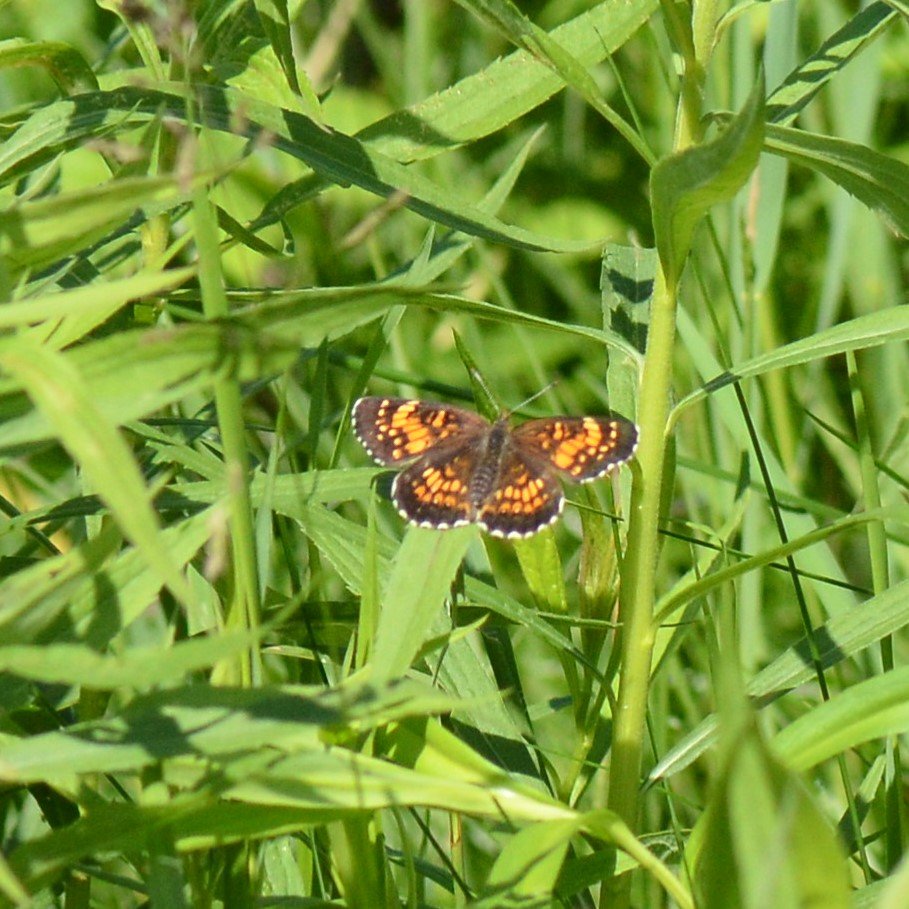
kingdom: Animalia
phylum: Arthropoda
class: Insecta
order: Lepidoptera
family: Nymphalidae
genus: Chlosyne
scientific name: Chlosyne harrisii
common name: Harris's Checkerspot
